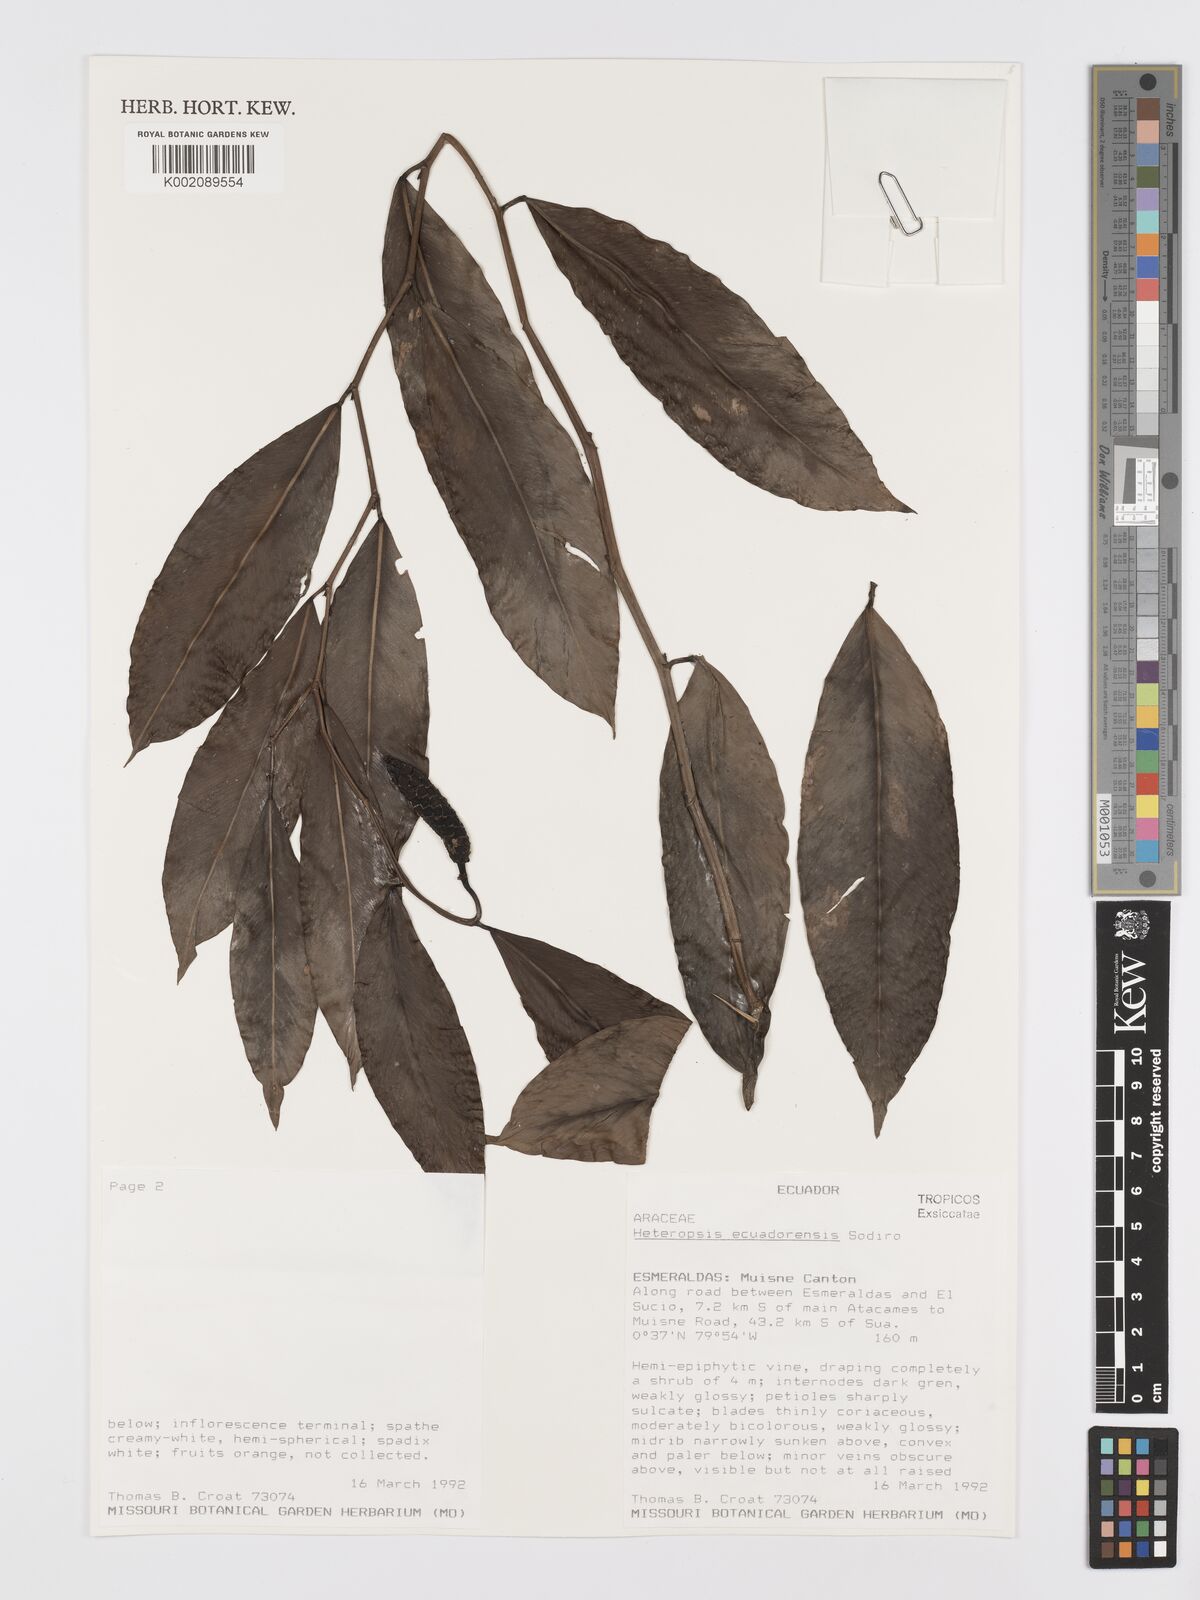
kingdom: Plantae
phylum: Tracheophyta
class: Liliopsida
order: Alismatales
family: Araceae
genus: Heteropsis
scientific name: Heteropsis ecuadorensis
